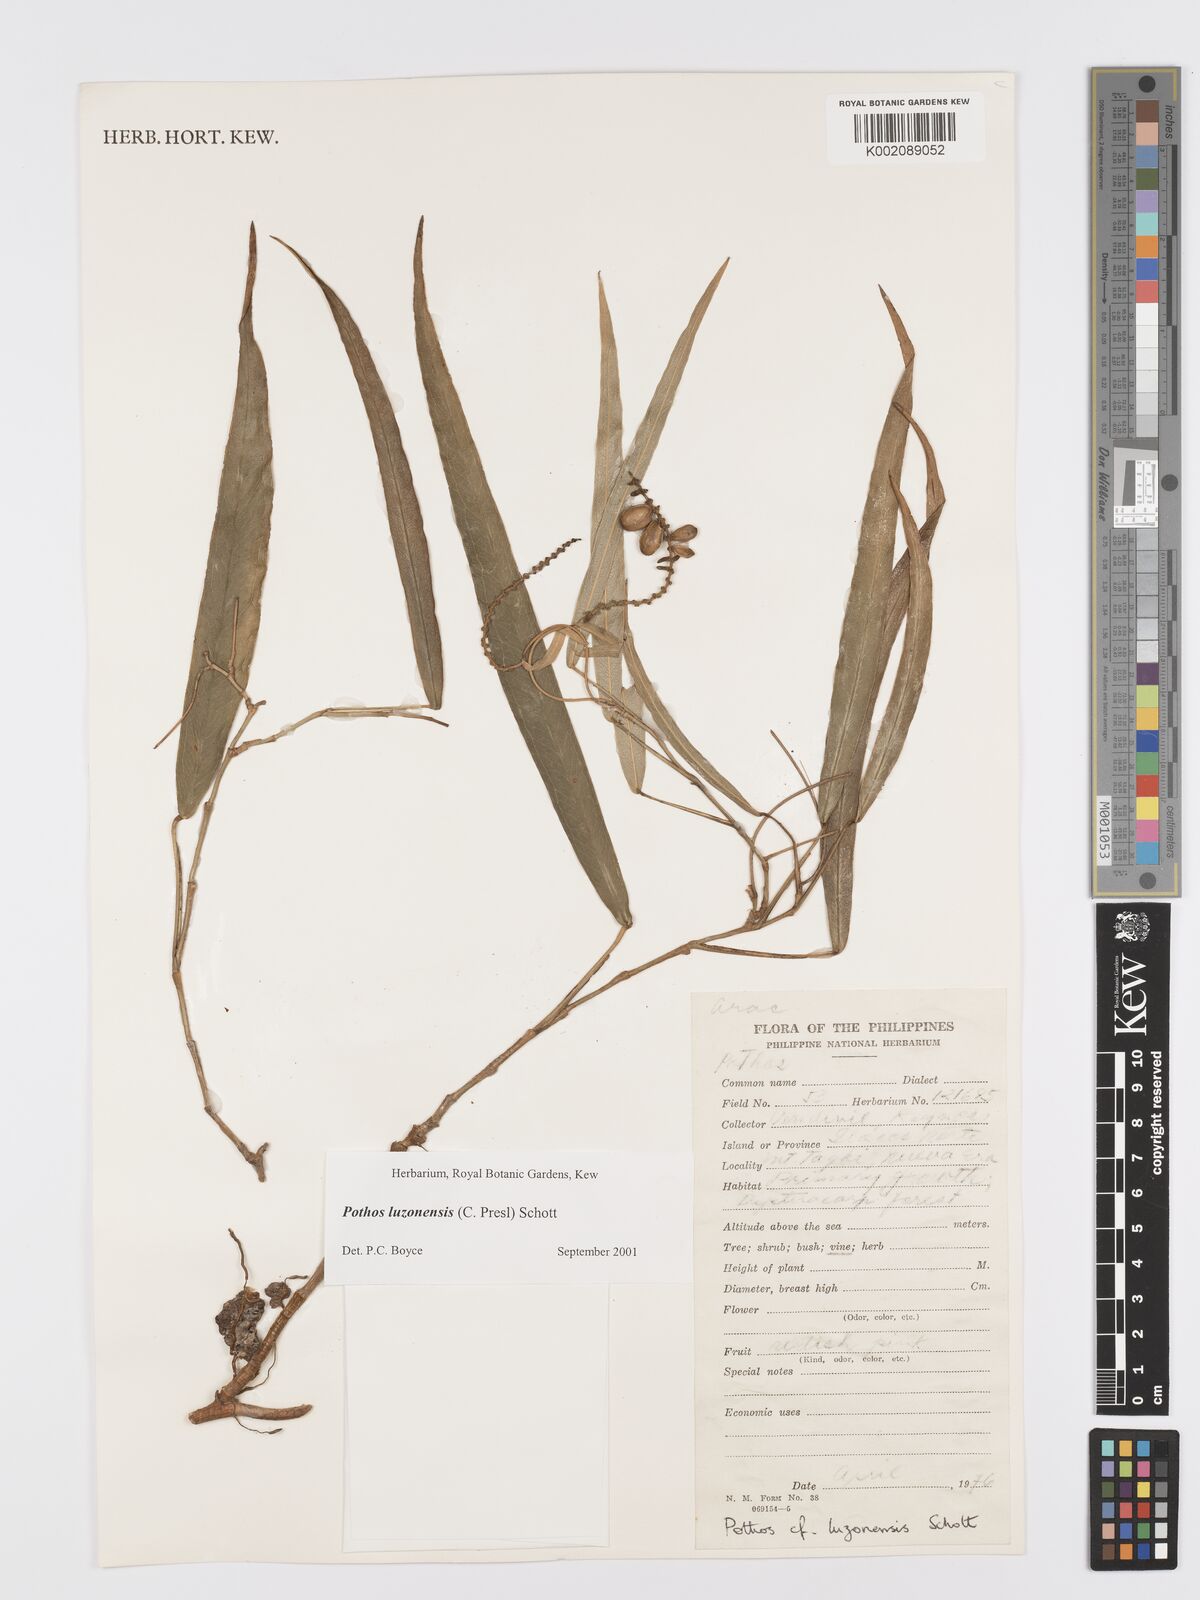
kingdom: Plantae
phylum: Tracheophyta
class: Liliopsida
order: Alismatales
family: Araceae
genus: Pothos
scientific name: Pothos luzonensis
